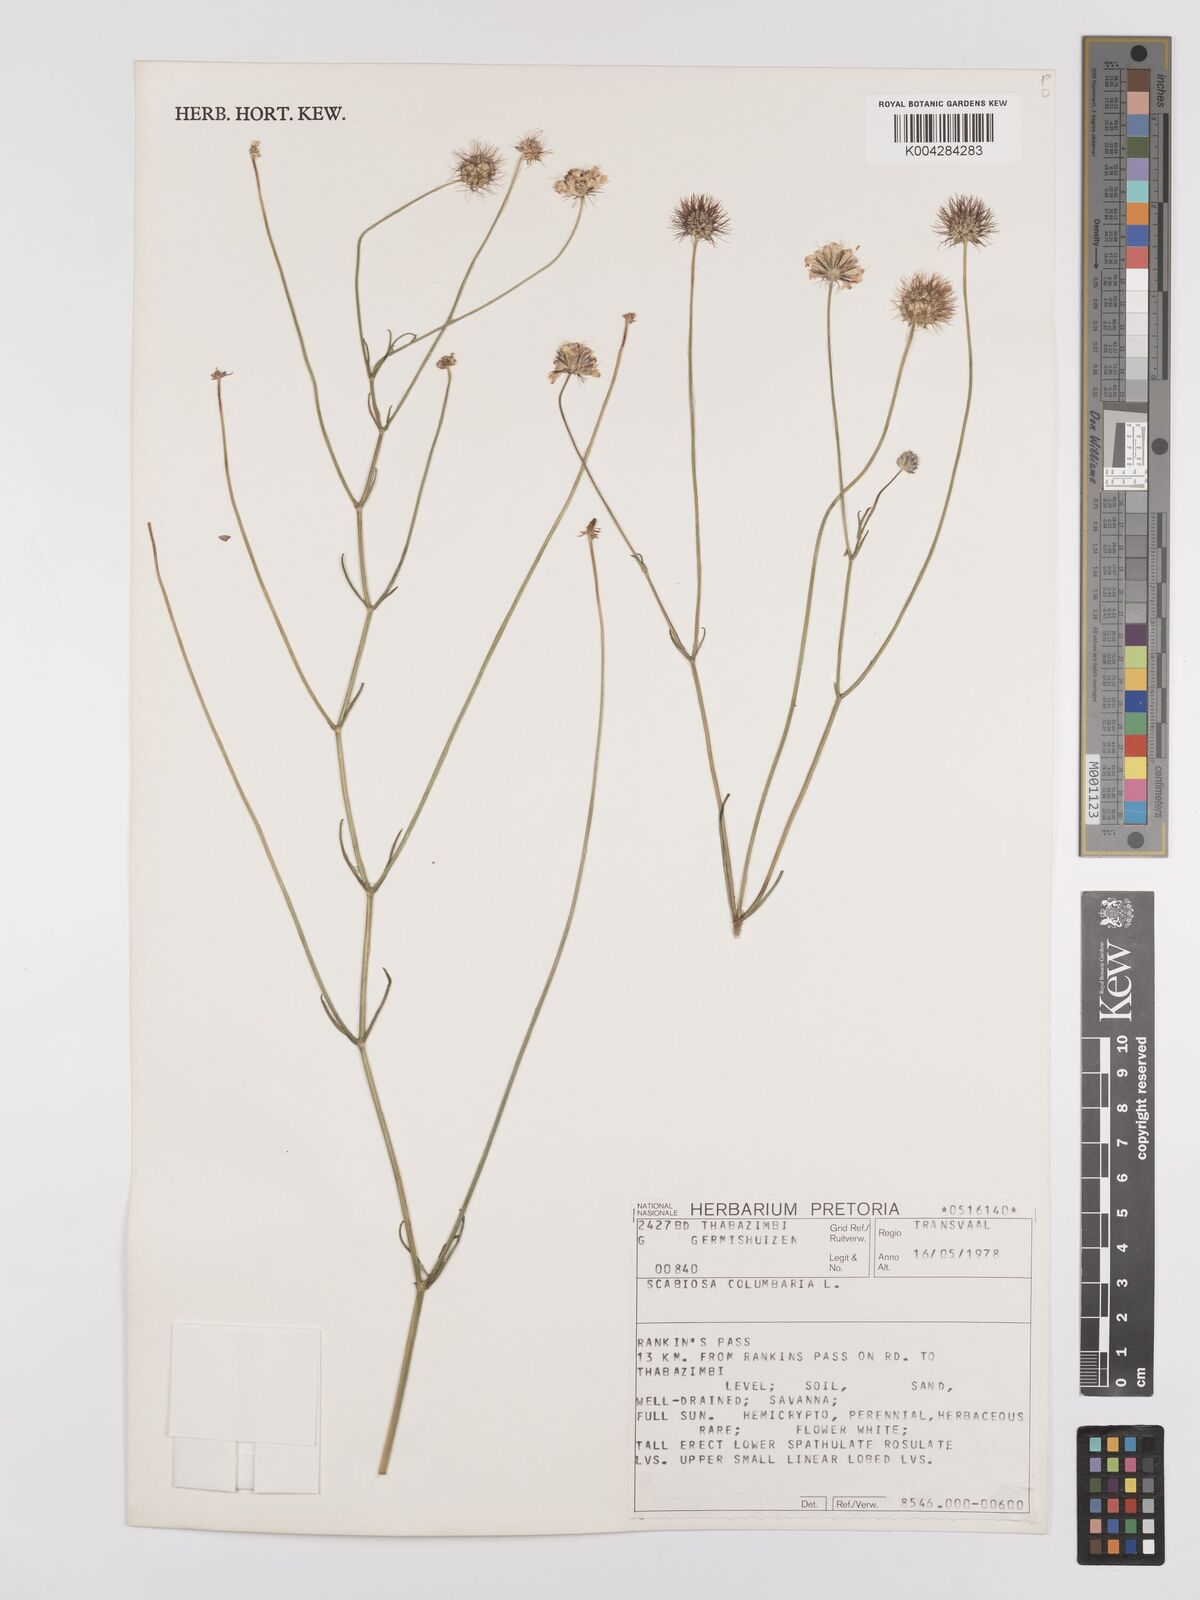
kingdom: Plantae
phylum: Tracheophyta
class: Magnoliopsida
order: Dipsacales
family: Caprifoliaceae
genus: Scabiosa
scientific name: Scabiosa columbaria
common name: Small scabious
